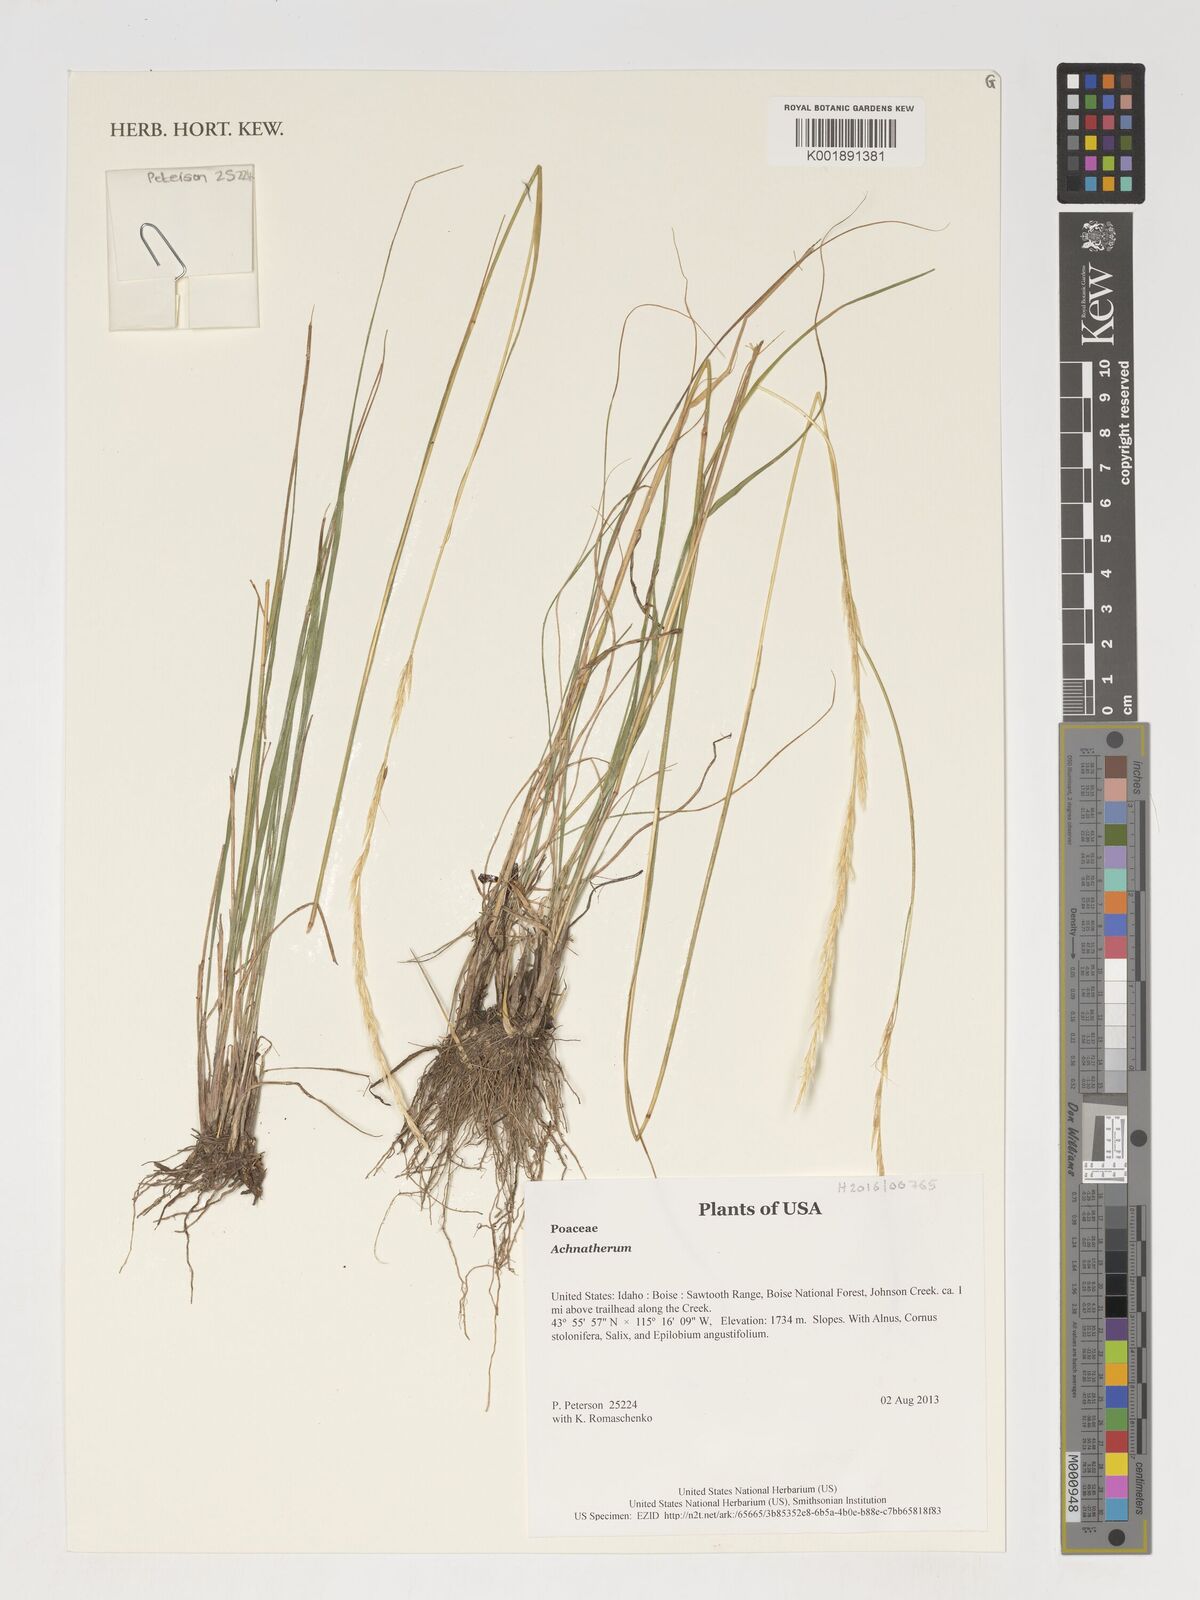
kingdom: Plantae
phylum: Tracheophyta
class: Liliopsida
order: Poales
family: Poaceae
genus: Achnatherum
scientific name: Achnatherum
